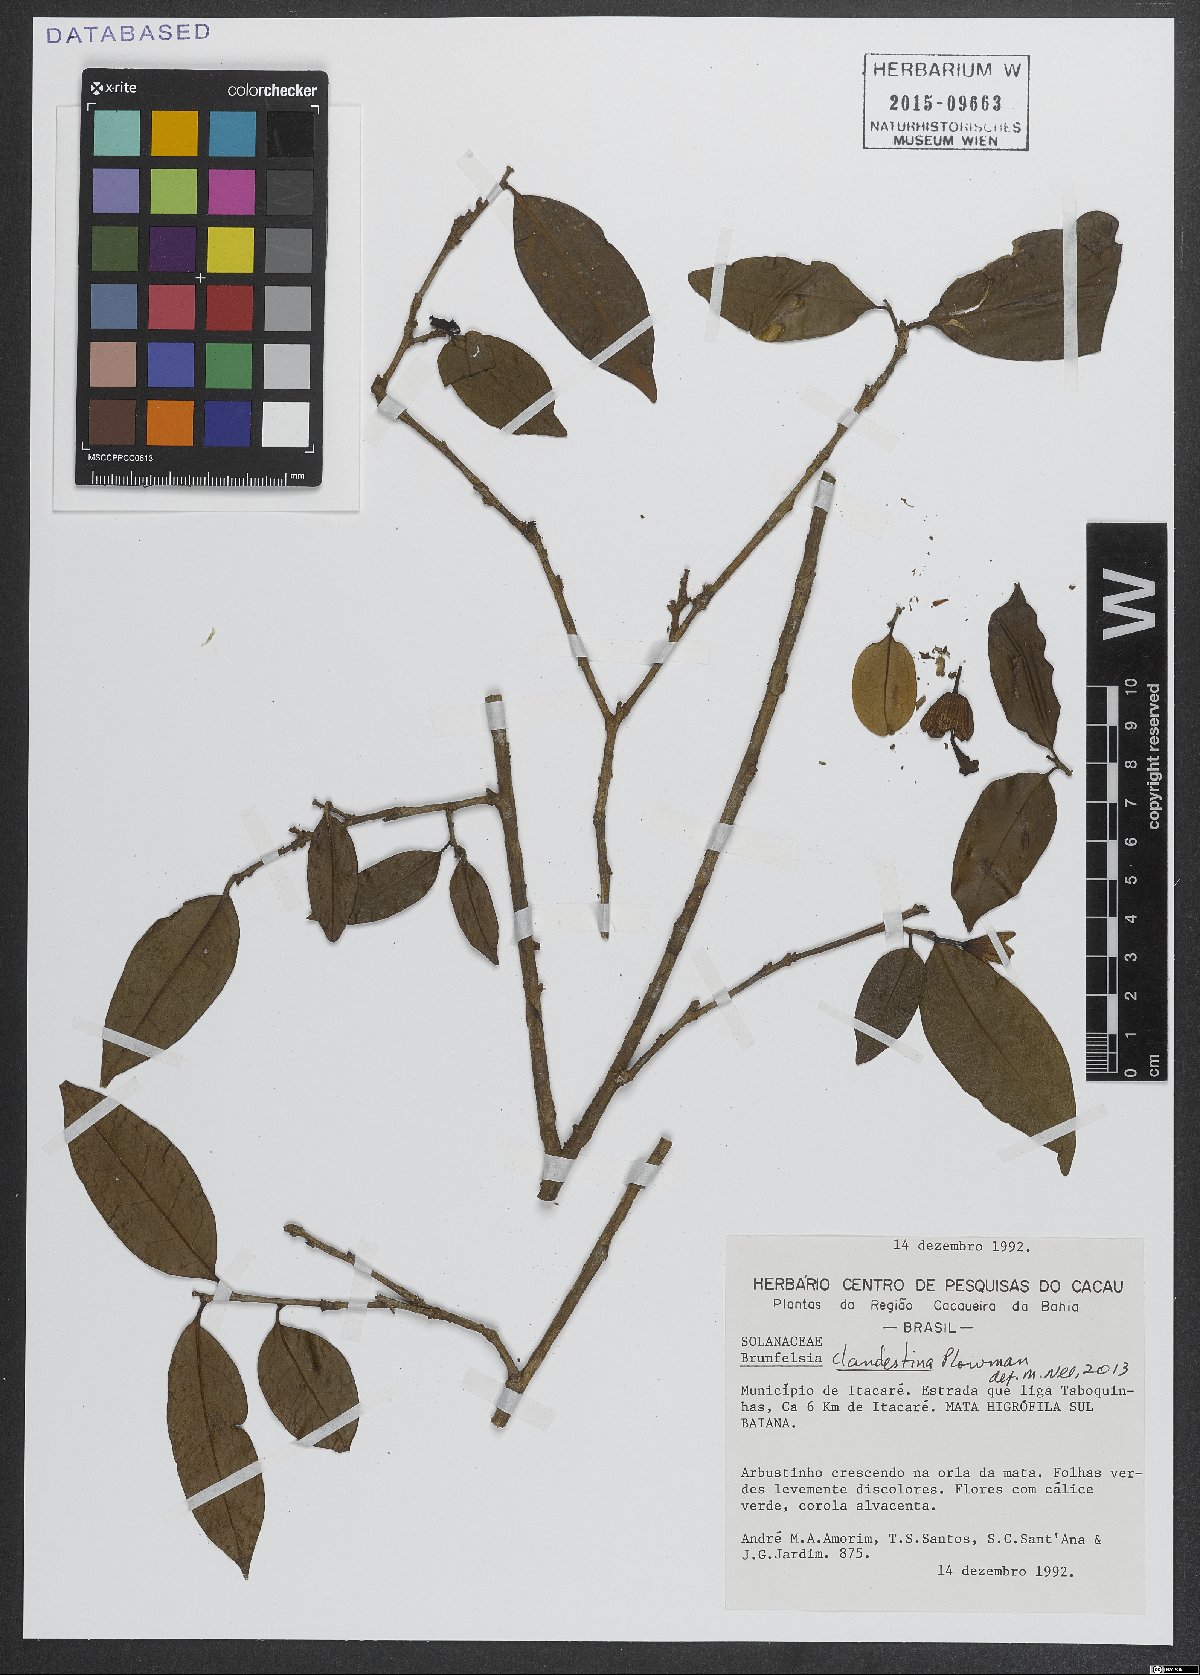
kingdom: Plantae
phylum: Tracheophyta
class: Magnoliopsida
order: Solanales
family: Solanaceae
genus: Brunfelsia
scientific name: Brunfelsia clandestina
